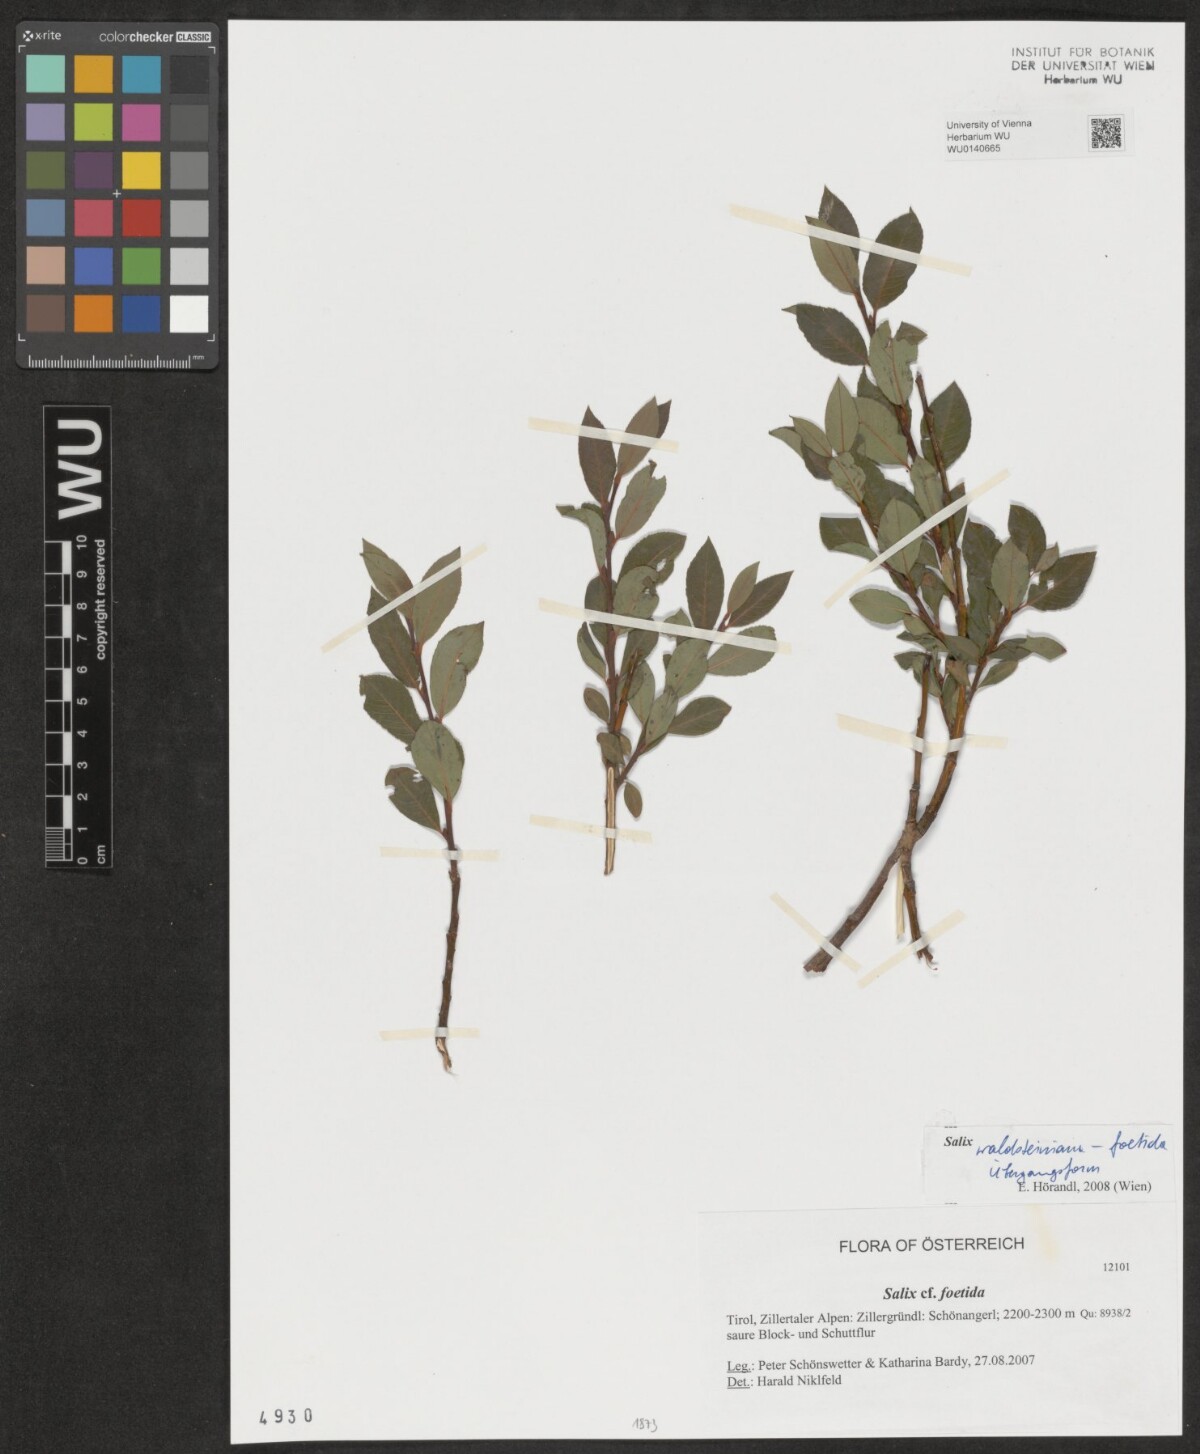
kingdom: Plantae
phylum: Tracheophyta
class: Magnoliopsida
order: Malpighiales
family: Salicaceae
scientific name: Salicaceae
